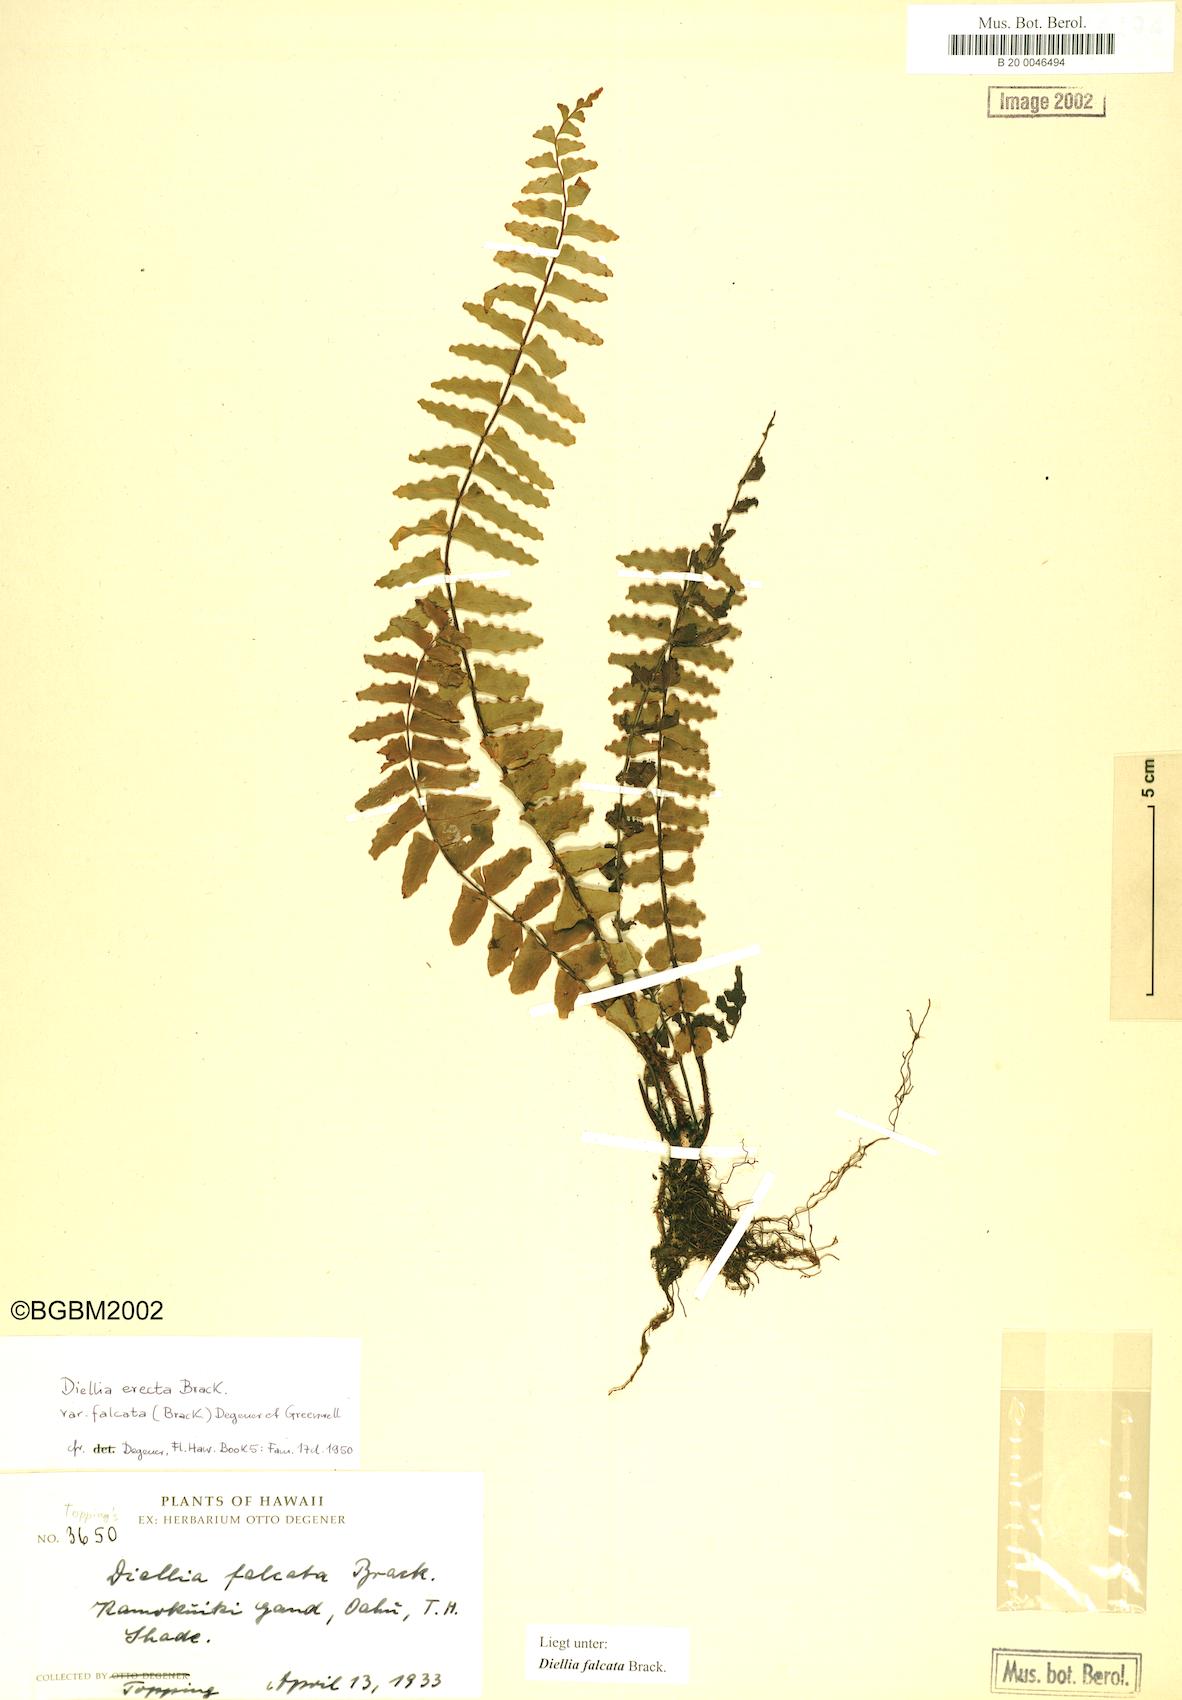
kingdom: Plantae
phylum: Tracheophyta
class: Polypodiopsida
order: Polypodiales
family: Aspleniaceae
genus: Asplenium
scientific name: Asplenium dielfalcatum
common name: Sickle island spleenwort
